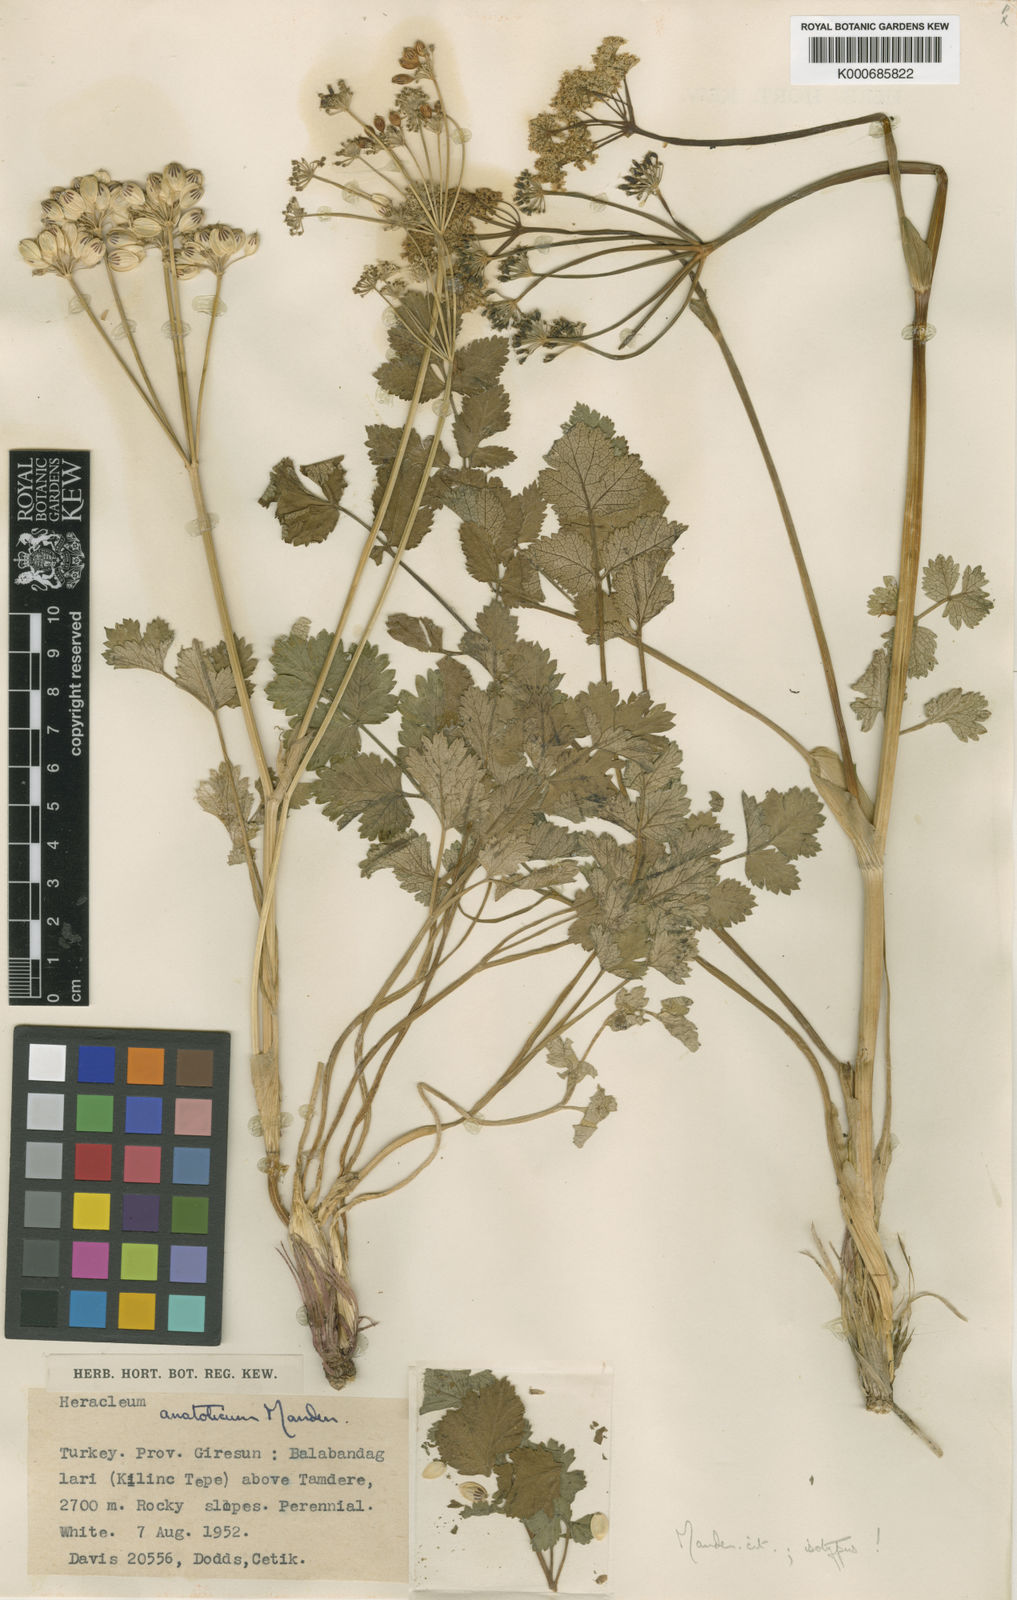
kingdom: Plantae
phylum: Tracheophyta
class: Magnoliopsida
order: Apiales
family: Apiaceae
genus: Heracleum
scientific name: Heracleum incanum
